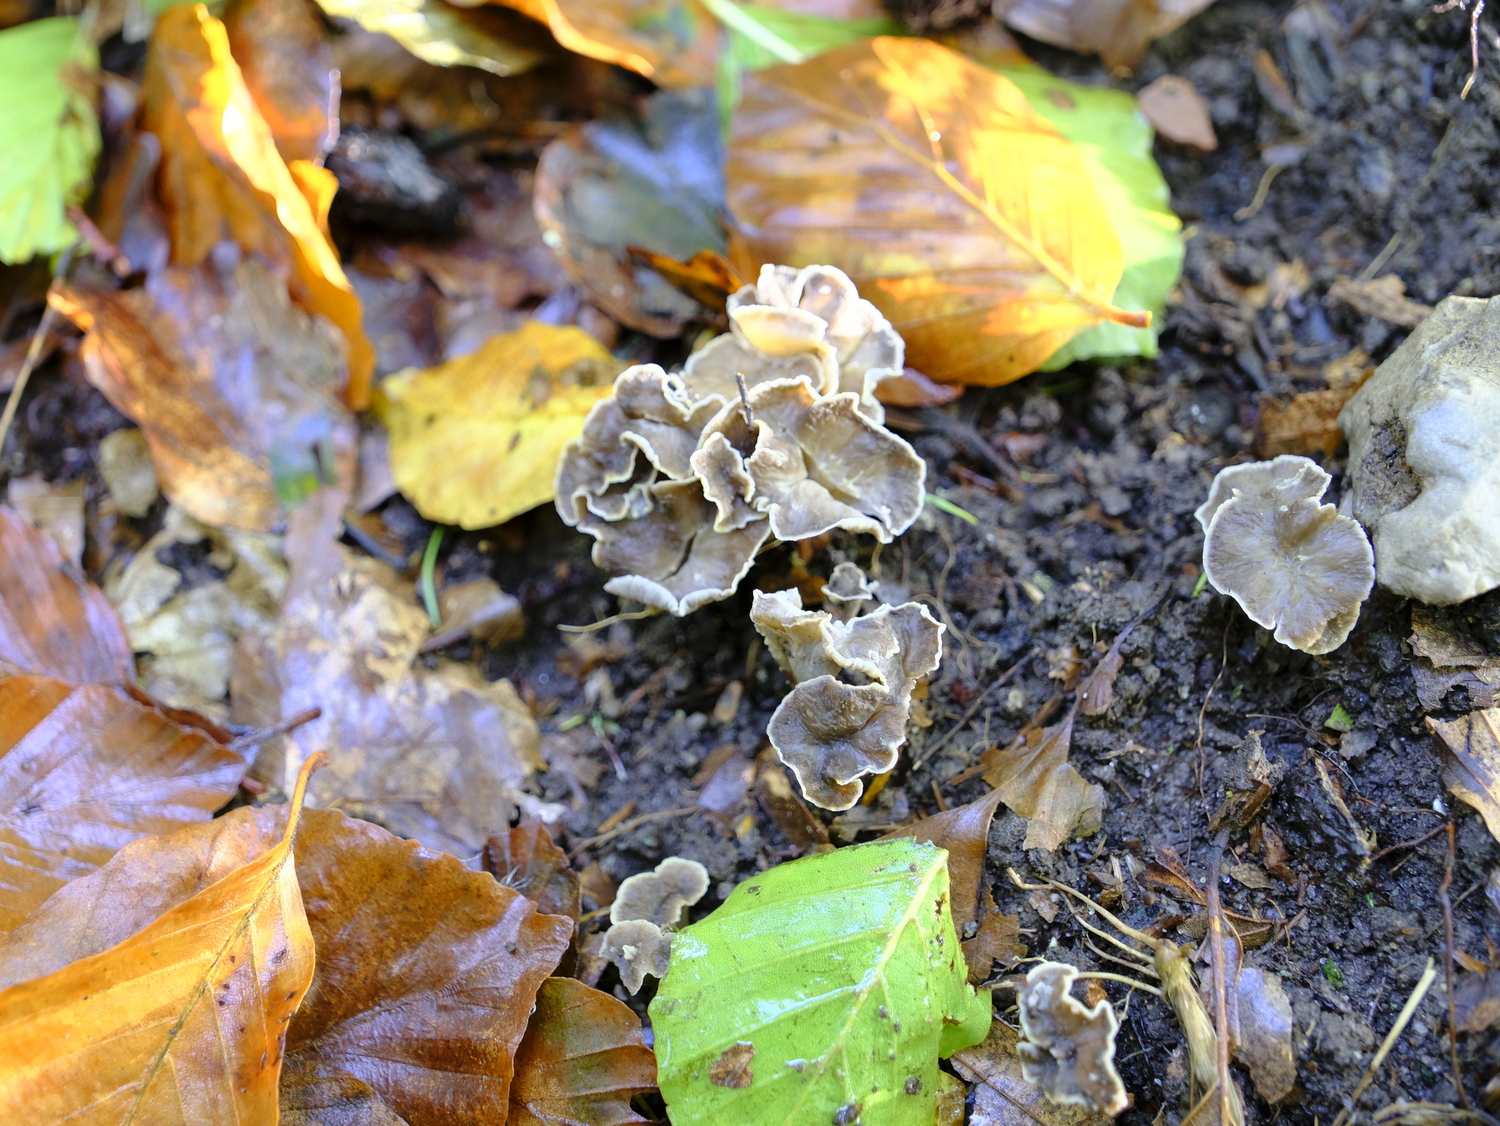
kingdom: Fungi
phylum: Basidiomycota
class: Agaricomycetes
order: Cantharellales
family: Hydnaceae
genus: Craterellus
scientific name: Craterellus undulatus
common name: liden kantarel
